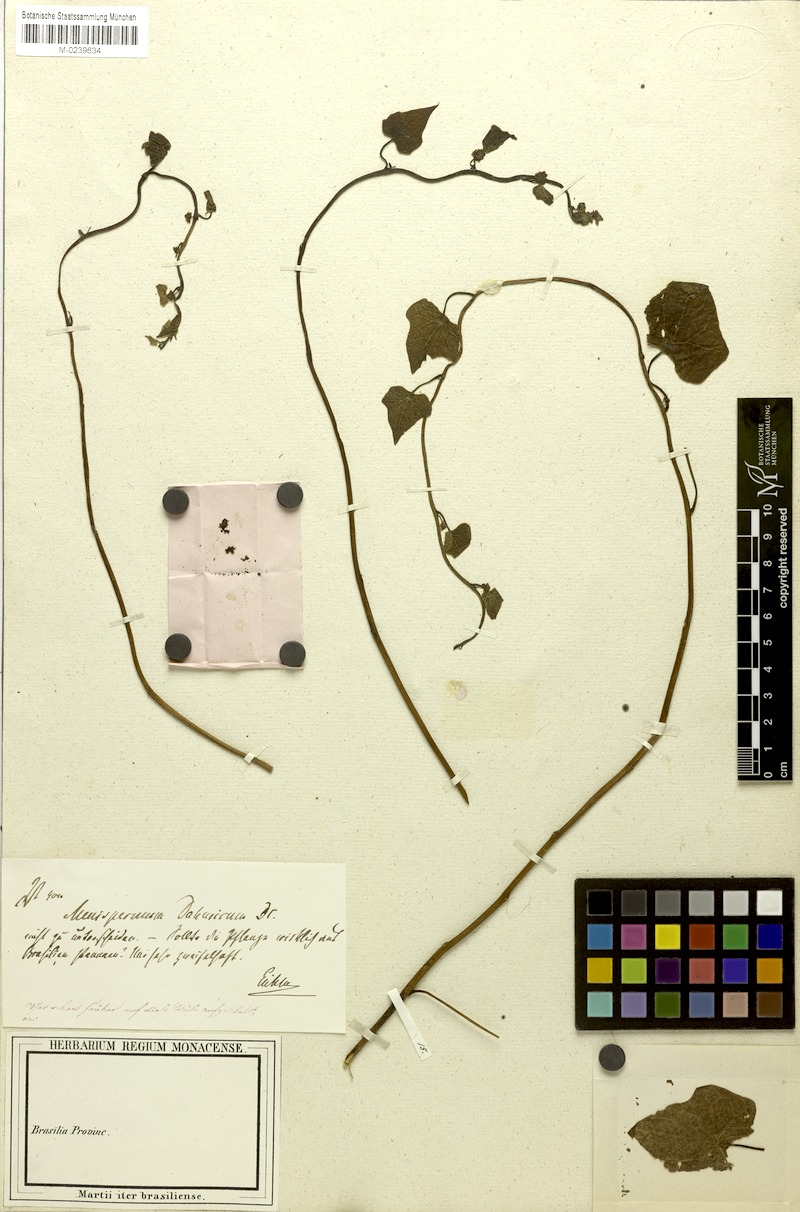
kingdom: Plantae
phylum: Tracheophyta
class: Magnoliopsida
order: Ranunculales
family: Menispermaceae
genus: Menispermum
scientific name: Menispermum dauricum
